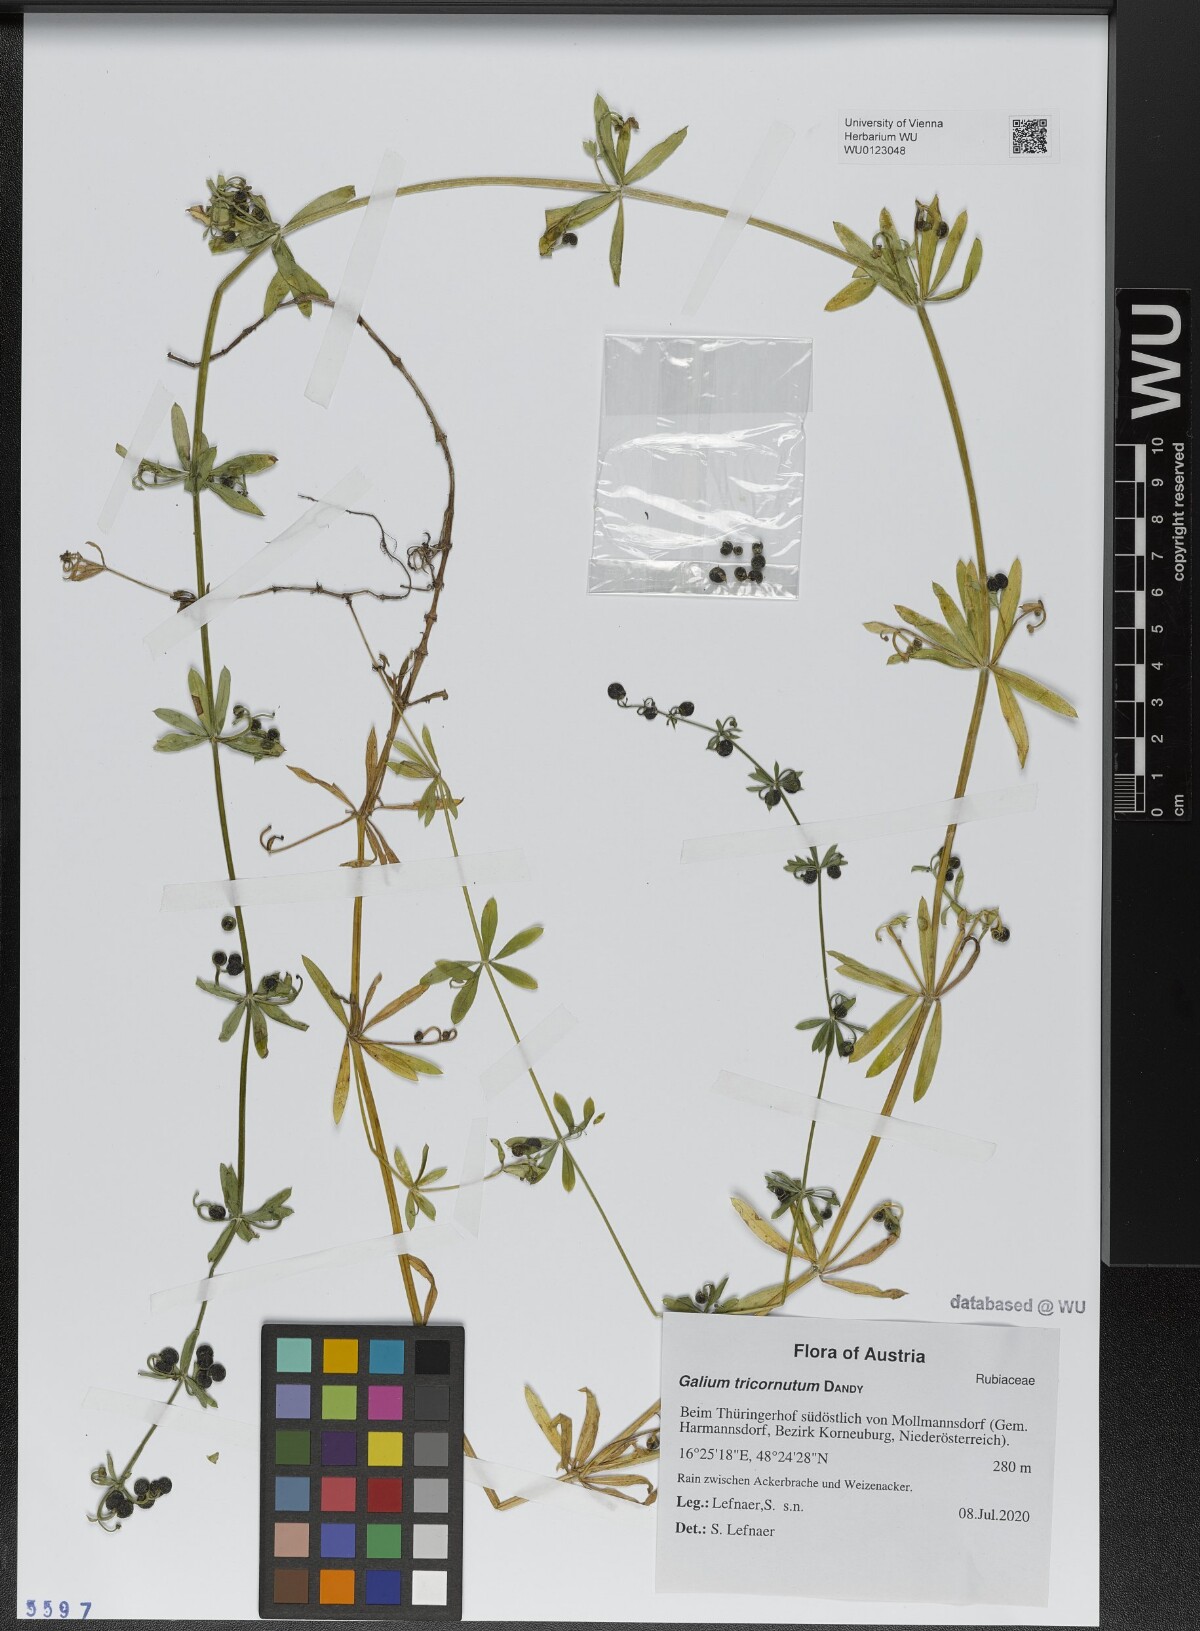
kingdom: Plantae
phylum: Tracheophyta
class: Magnoliopsida
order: Gentianales
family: Rubiaceae
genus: Galium
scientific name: Galium tricornutum
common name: Corn cleavers
